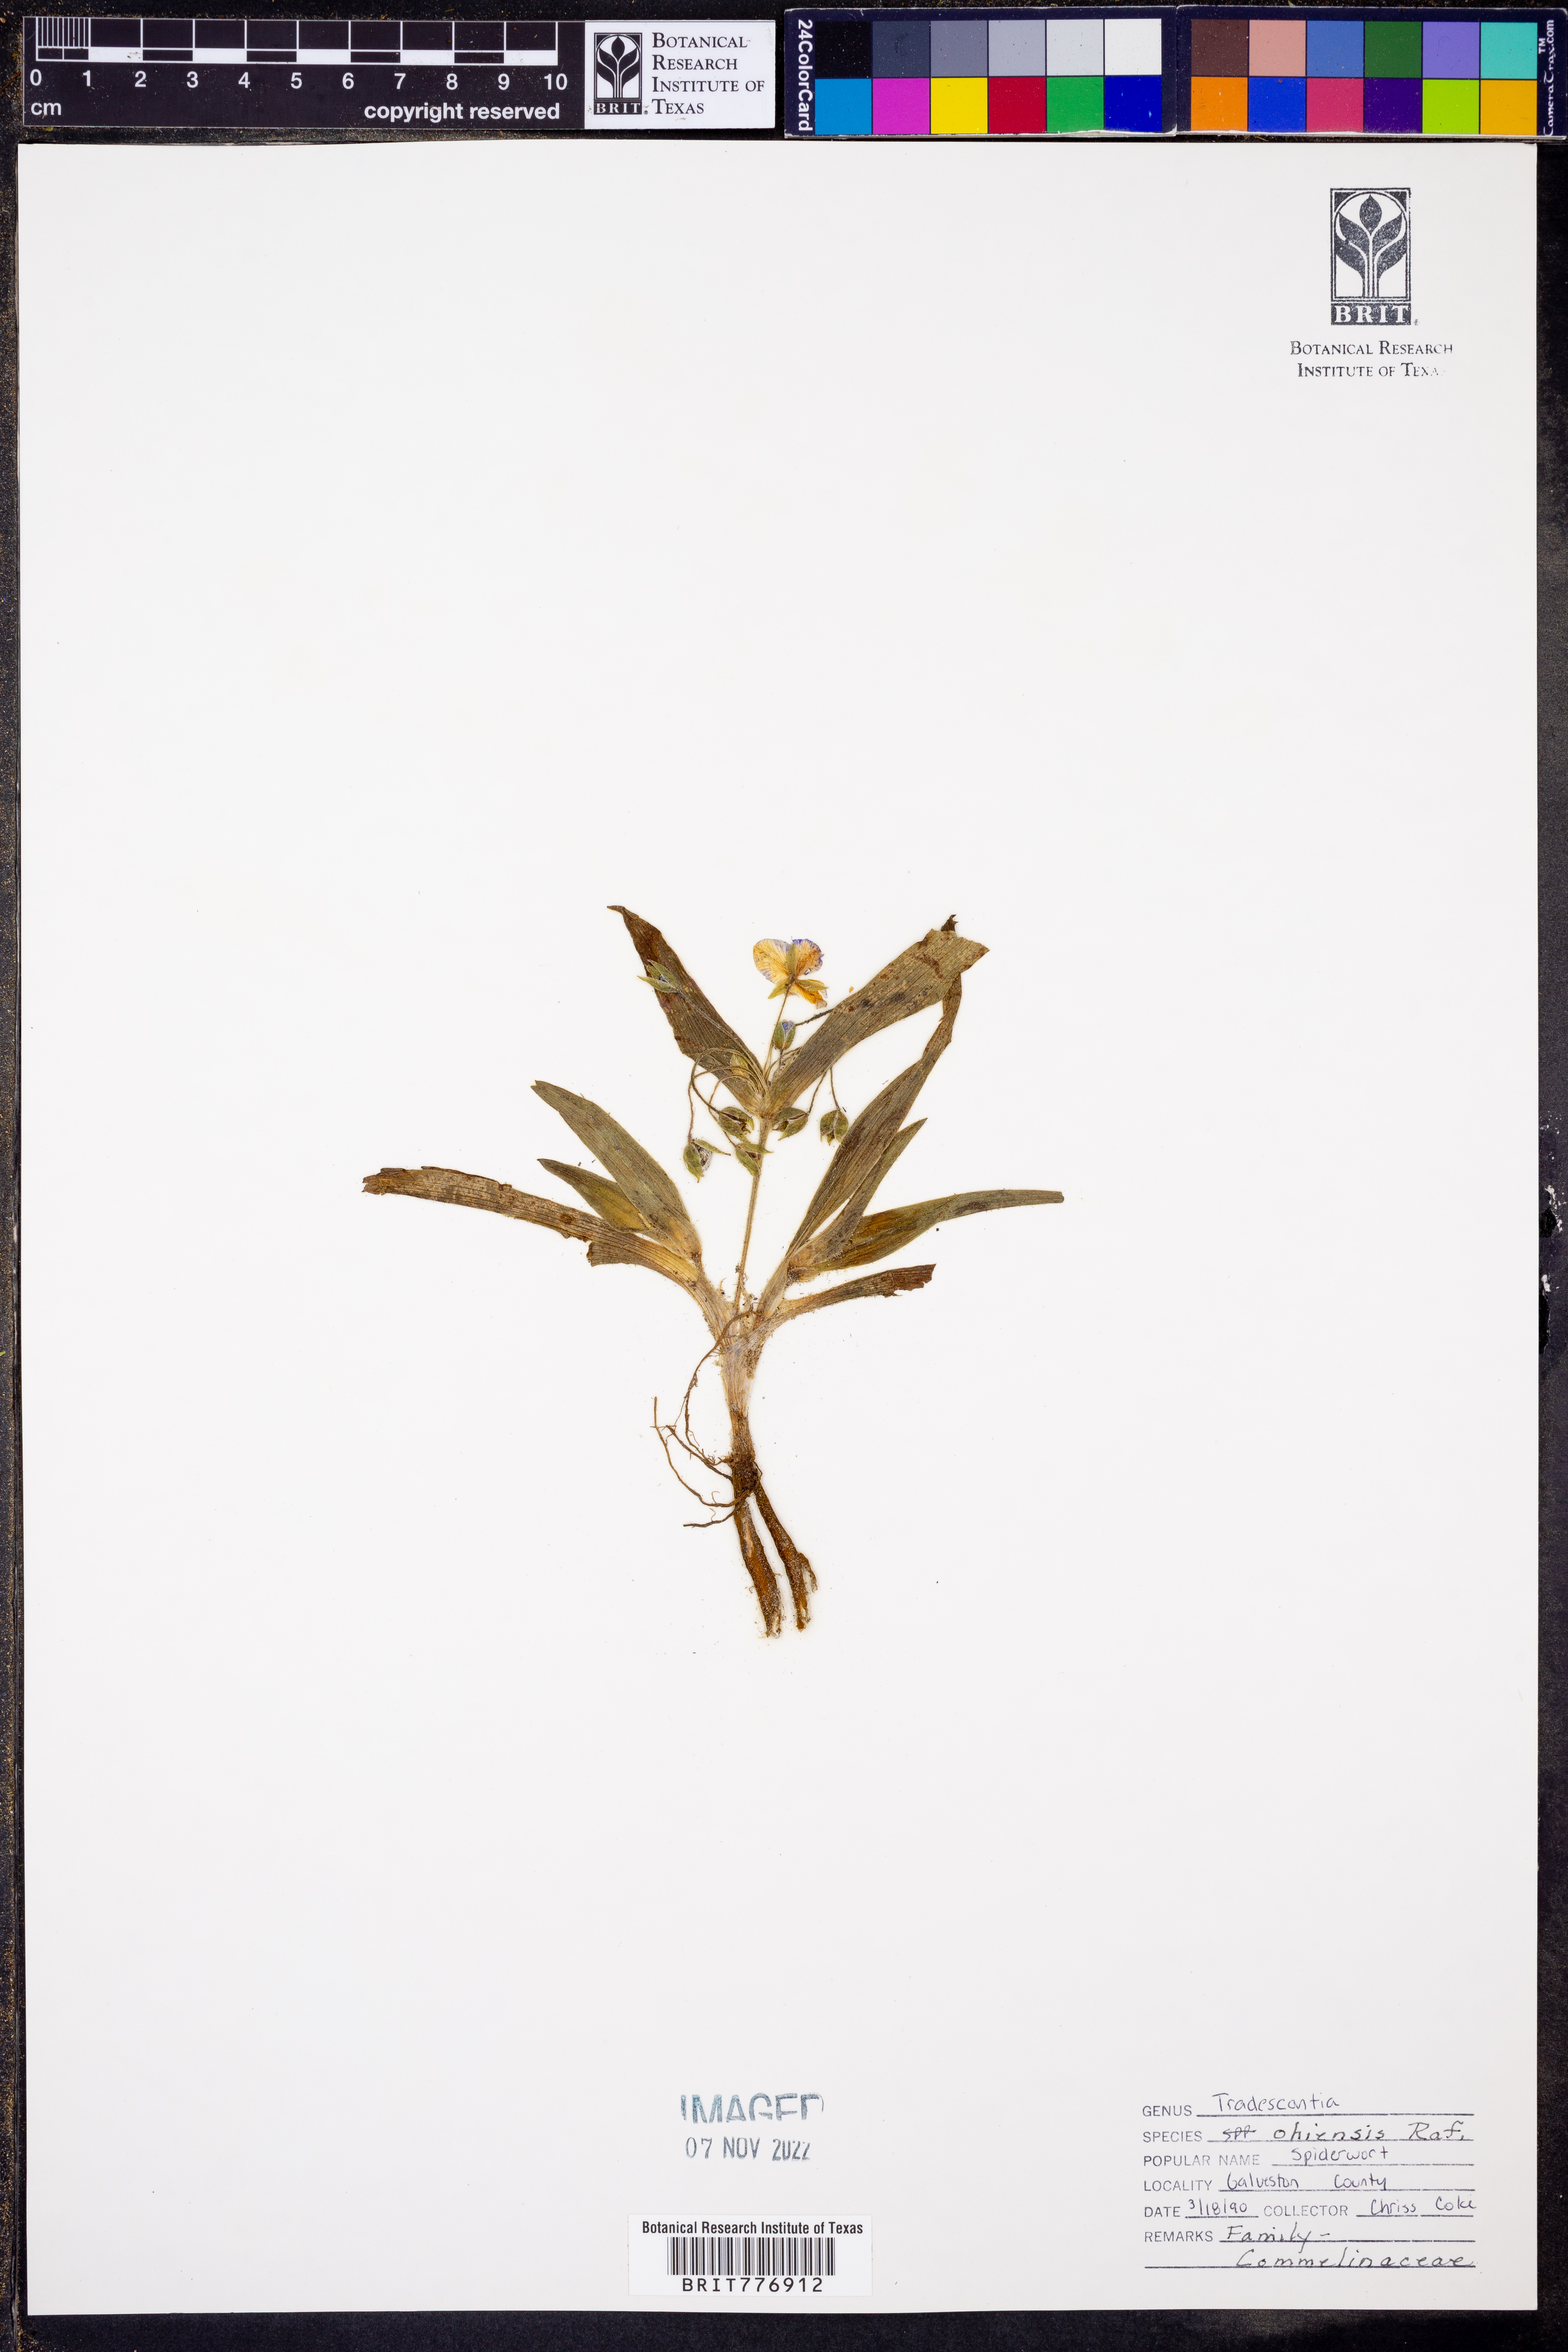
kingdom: Plantae
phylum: Tracheophyta
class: Liliopsida
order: Commelinales
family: Commelinaceae
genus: Tradescantia
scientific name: Tradescantia ohiensis
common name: Ohio spiderwort
